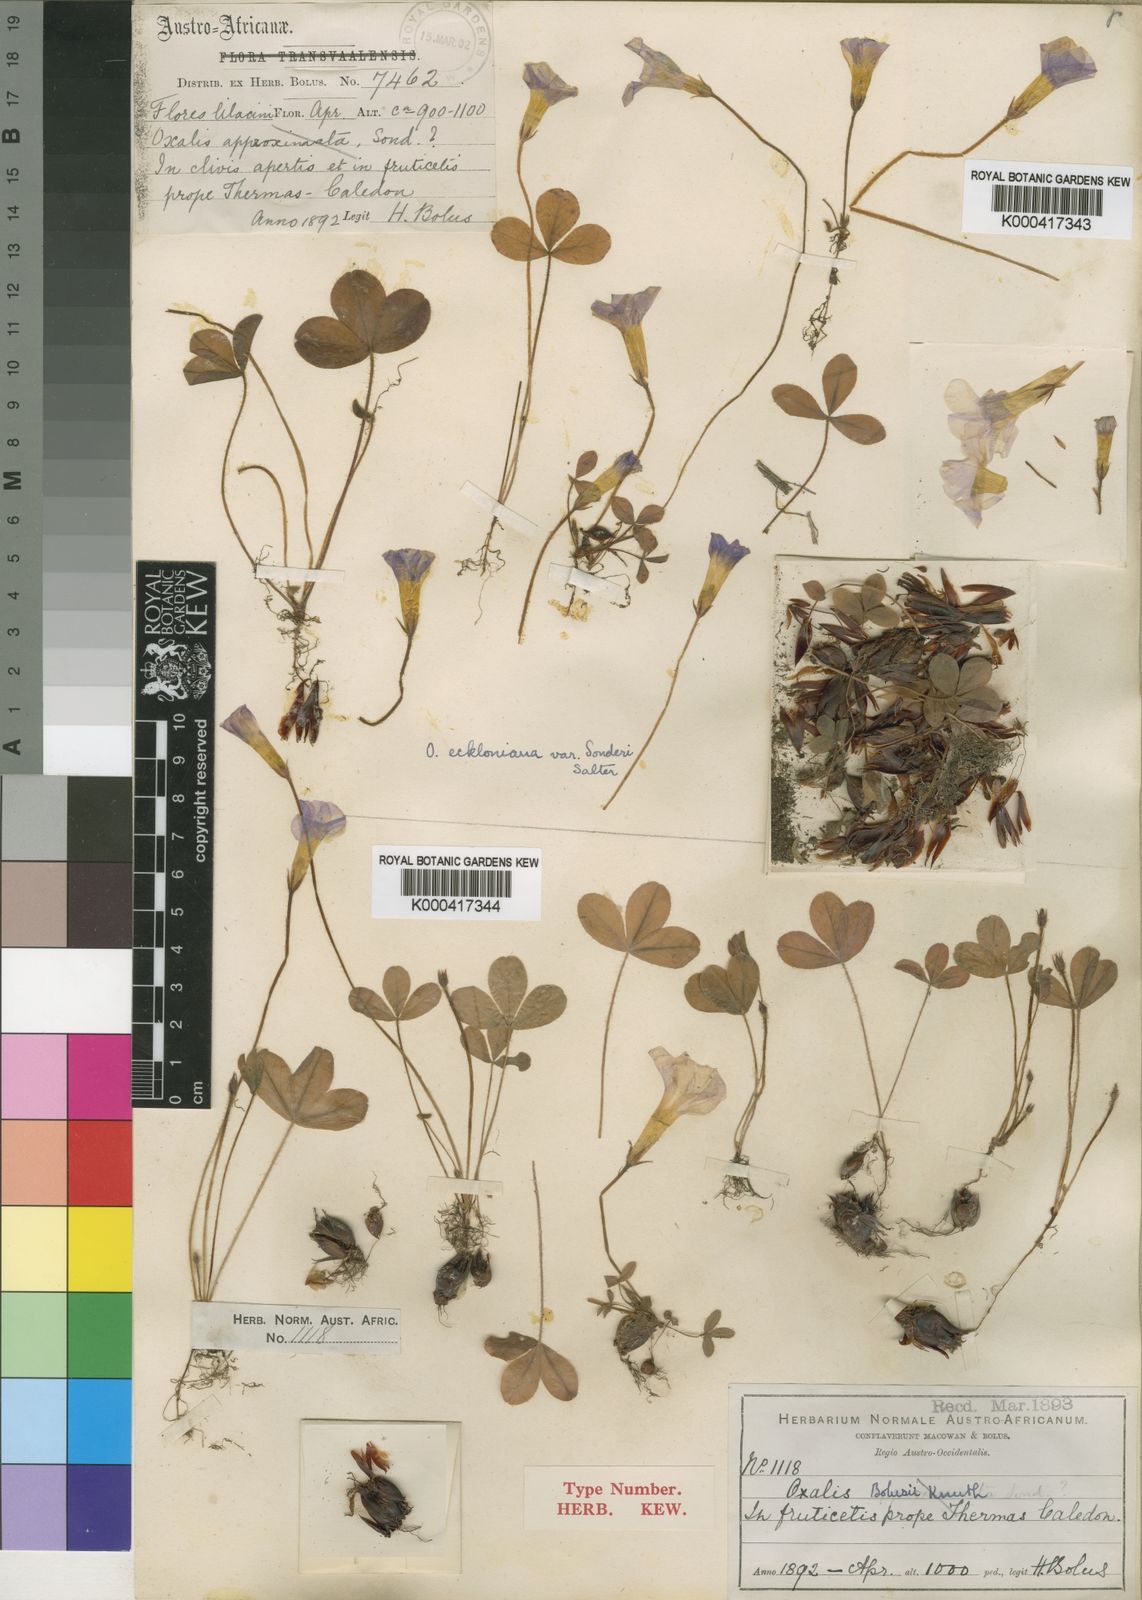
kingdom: Plantae
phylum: Tracheophyta
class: Magnoliopsida
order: Oxalidales
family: Oxalidaceae
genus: Oxalis
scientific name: Oxalis eckloniana
